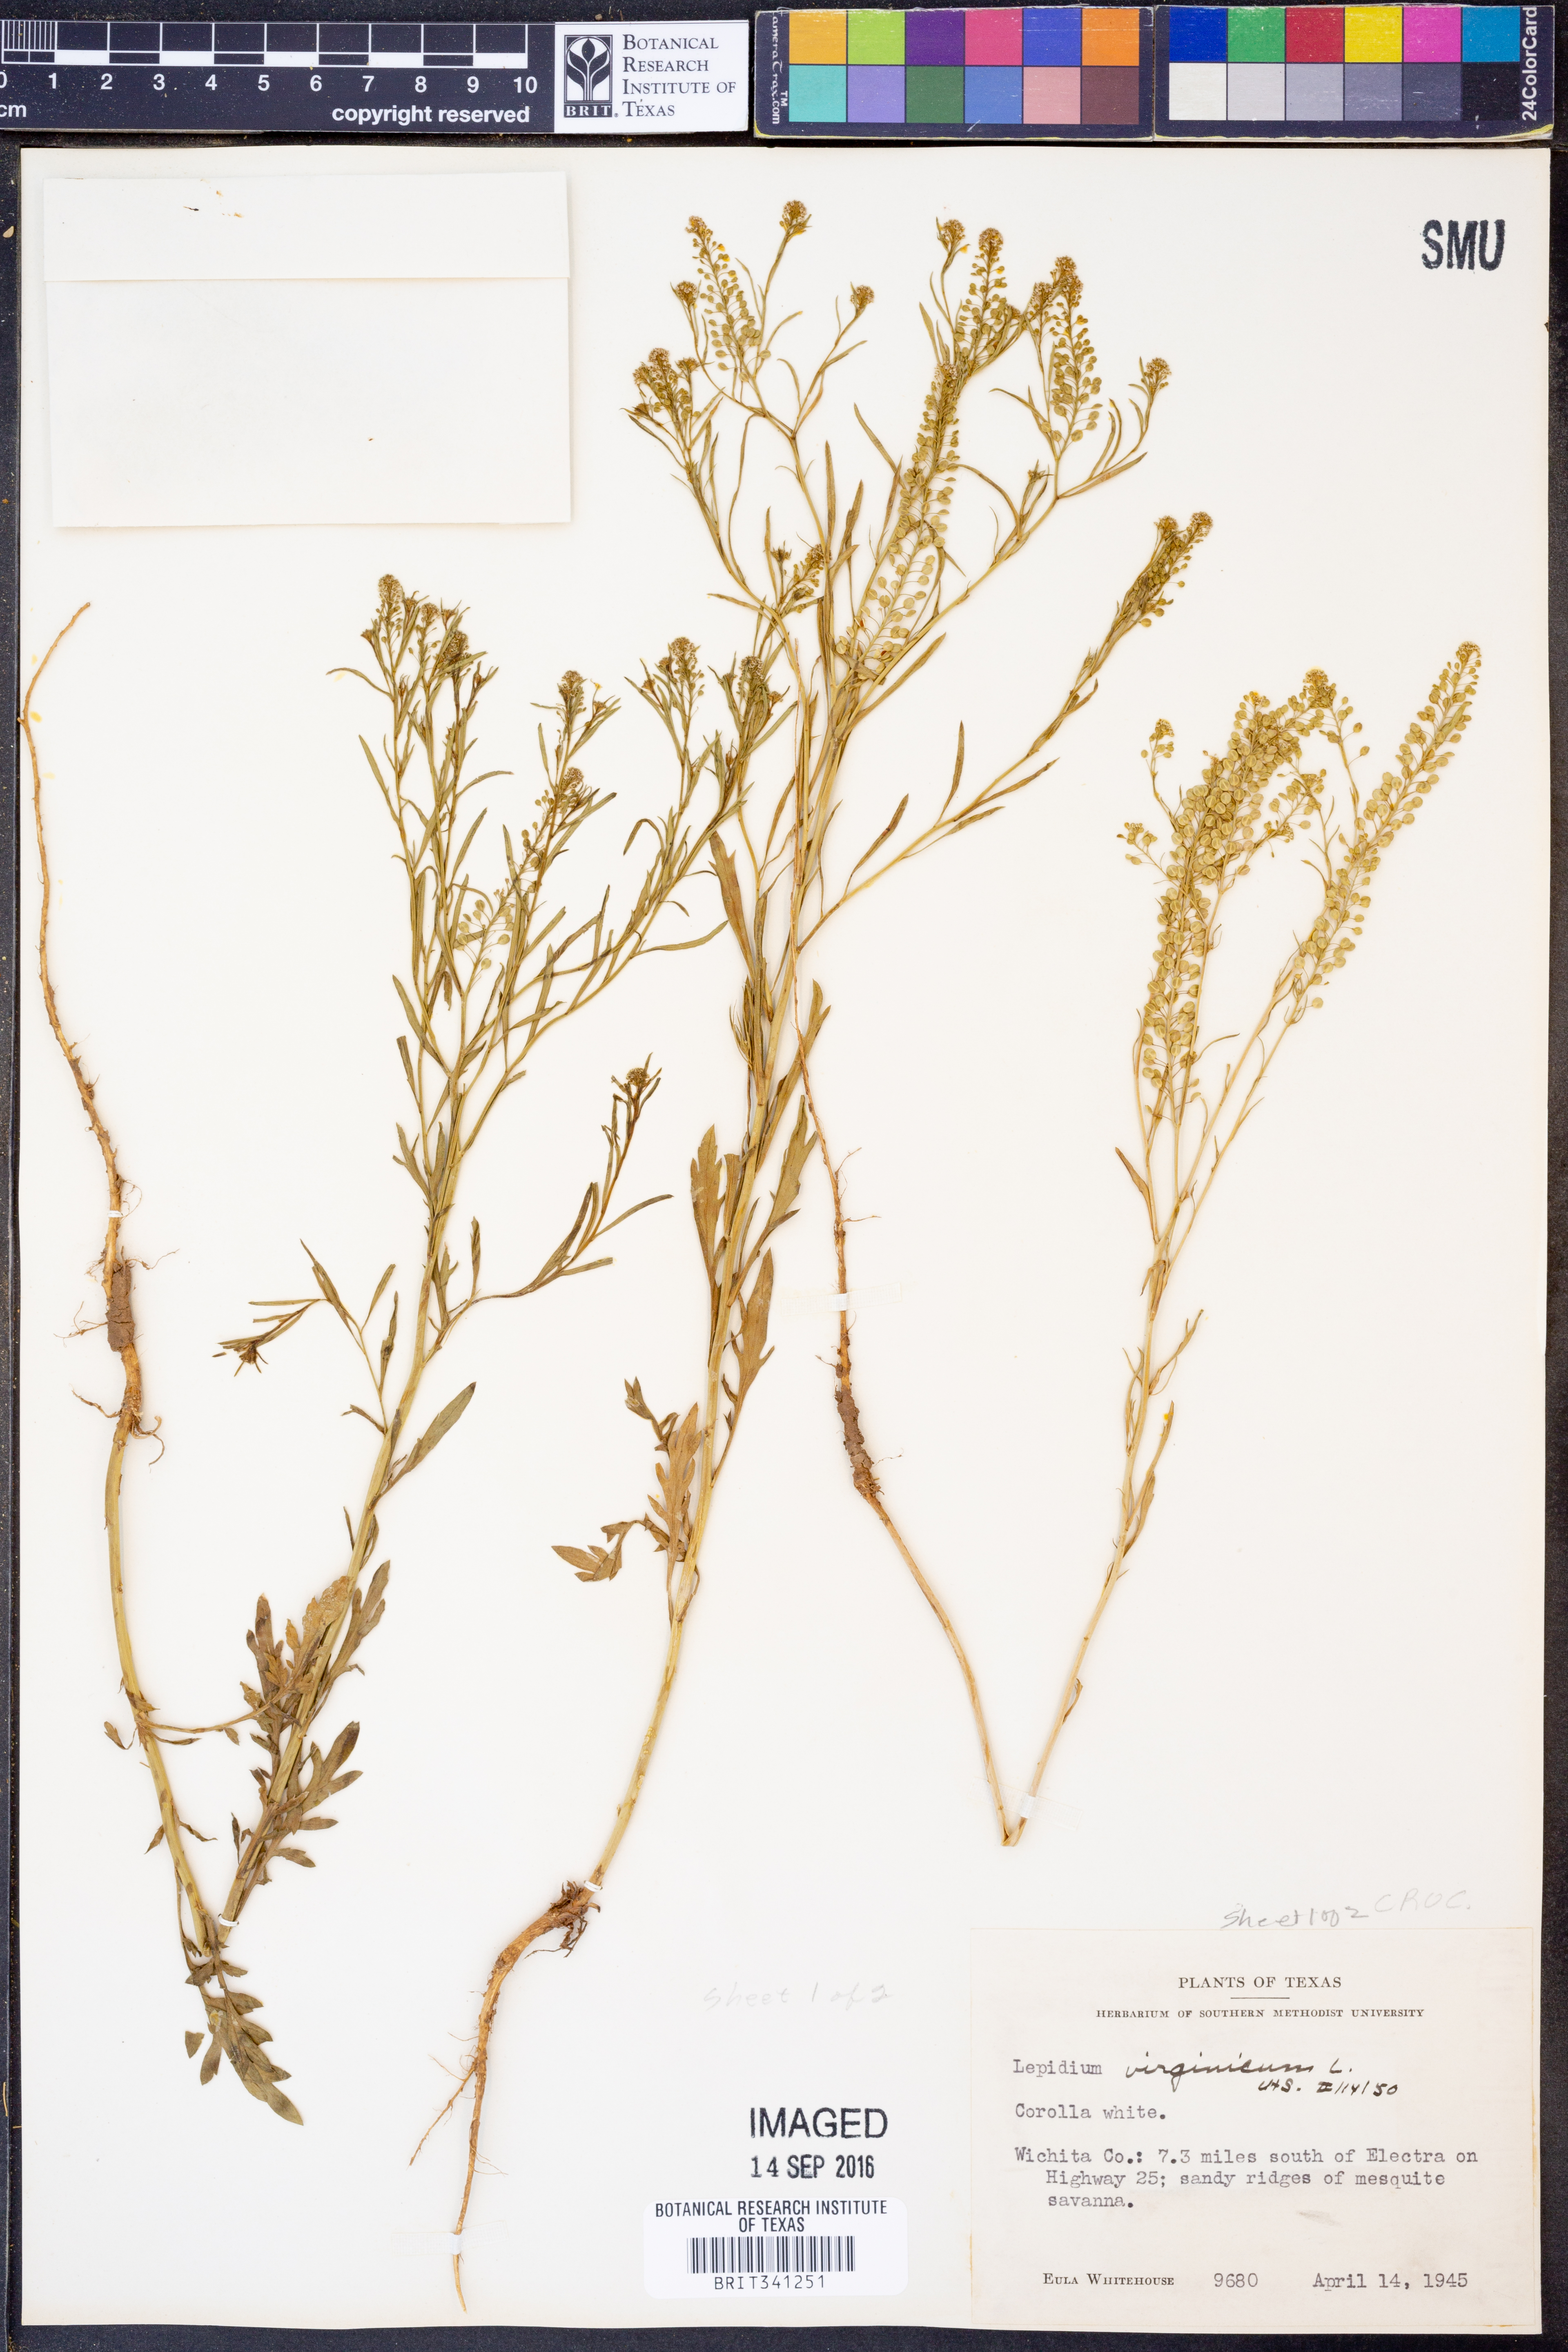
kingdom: Plantae
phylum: Tracheophyta
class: Magnoliopsida
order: Brassicales
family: Brassicaceae
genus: Lepidium
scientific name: Lepidium virginicum
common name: Least pepperwort
